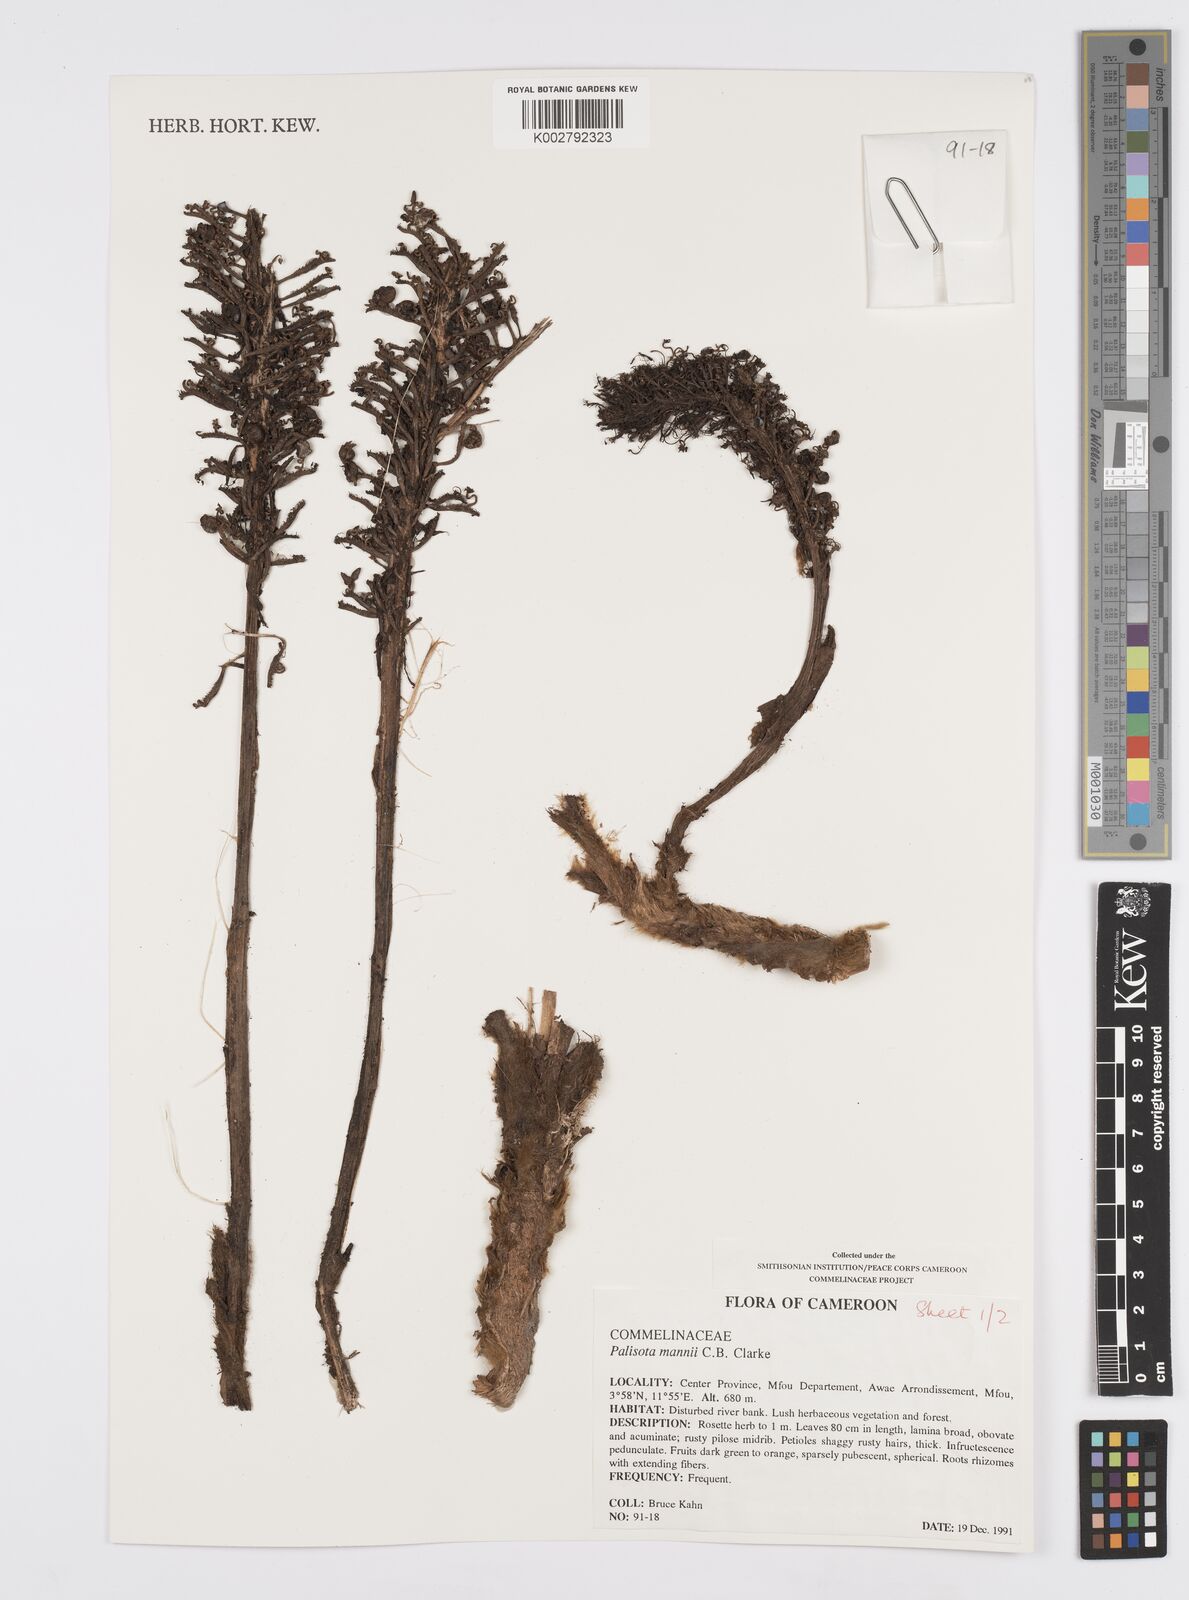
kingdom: Plantae
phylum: Tracheophyta
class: Liliopsida
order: Commelinales
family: Commelinaceae
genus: Palisota
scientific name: Palisota mannii
